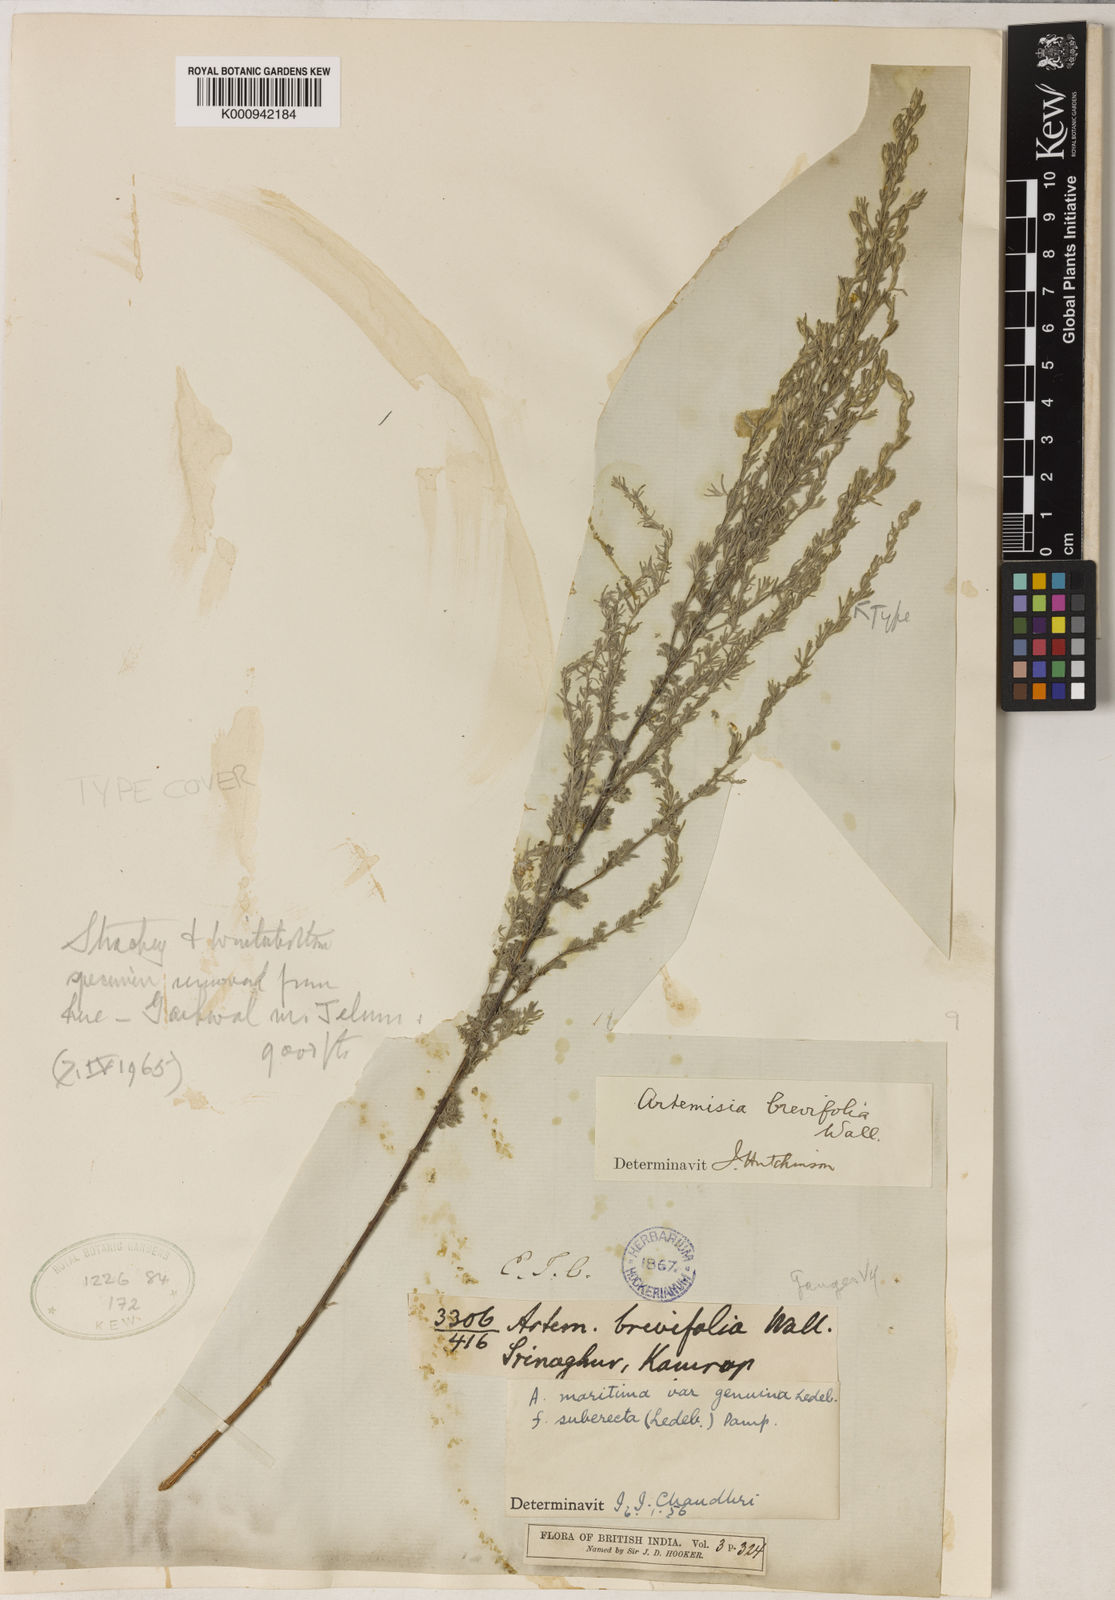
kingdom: Plantae
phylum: Tracheophyta
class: Magnoliopsida
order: Asterales
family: Asteraceae
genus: Artemisia
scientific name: Artemisia brevifolia
